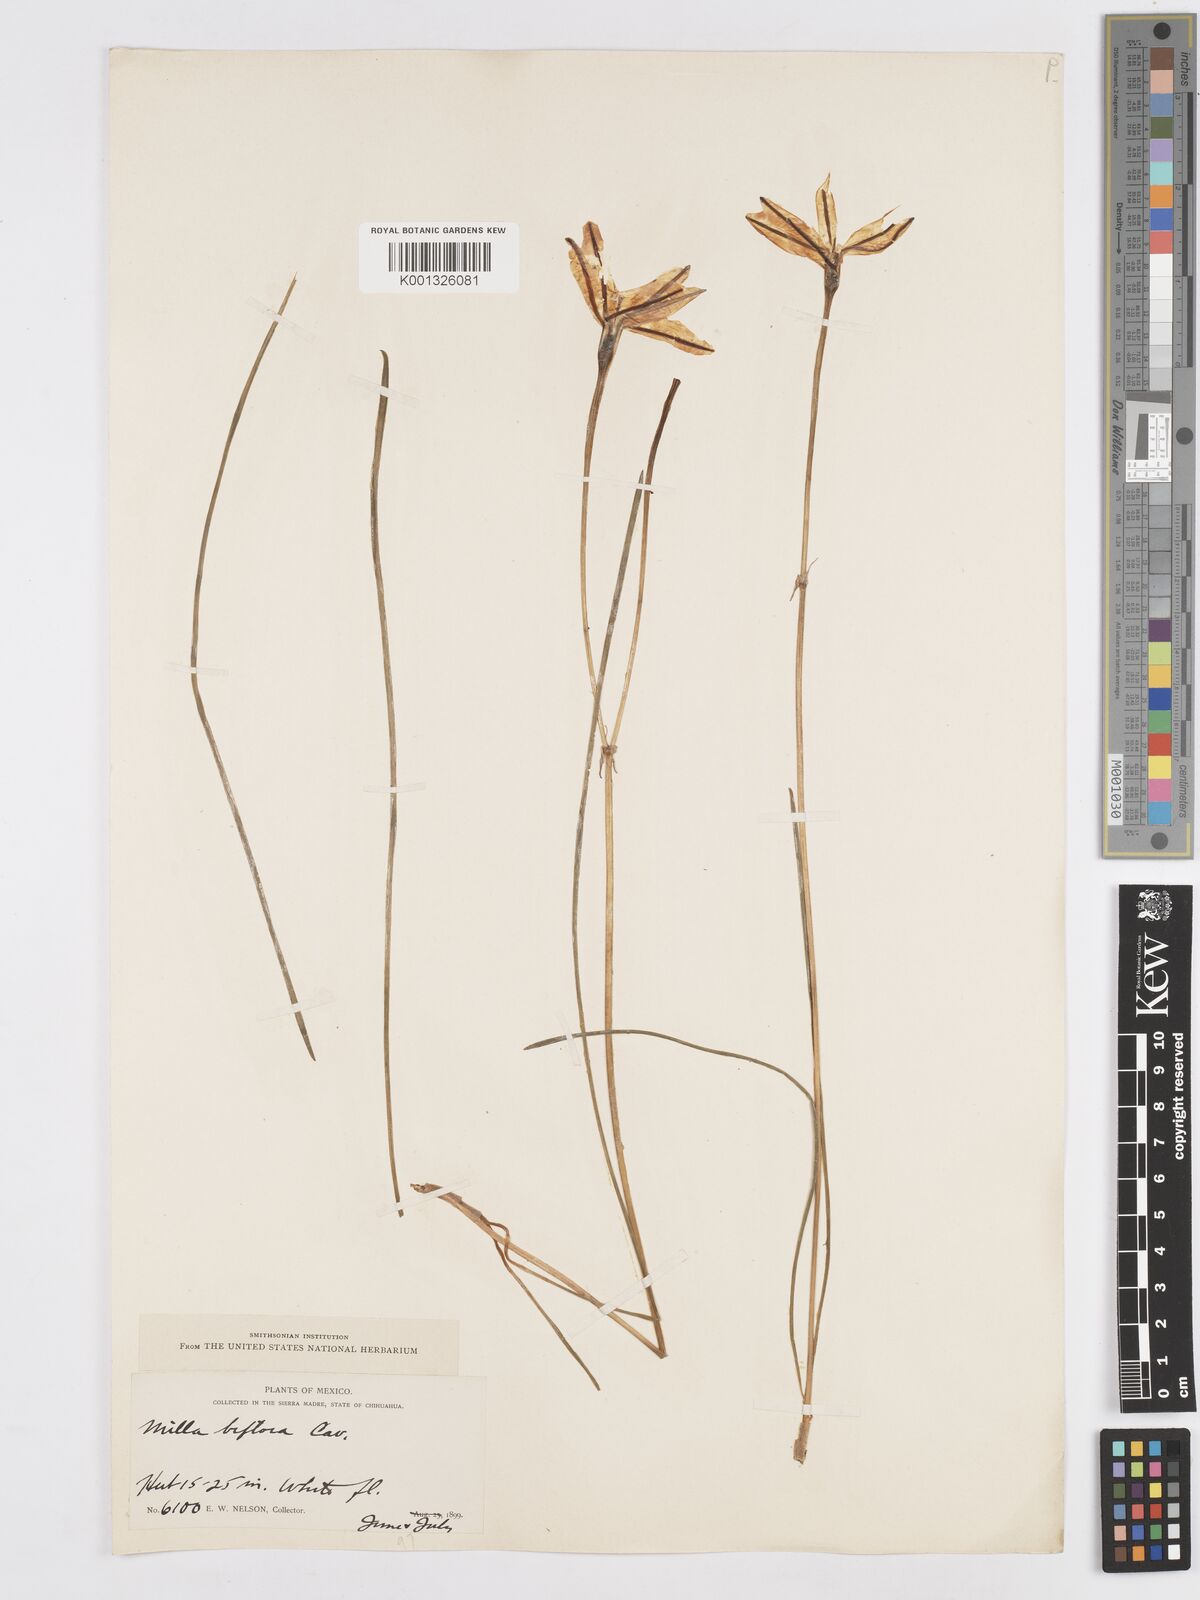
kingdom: Plantae
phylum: Tracheophyta
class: Liliopsida
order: Asparagales
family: Asparagaceae
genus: Milla
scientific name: Milla biflora
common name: Mexican-star
